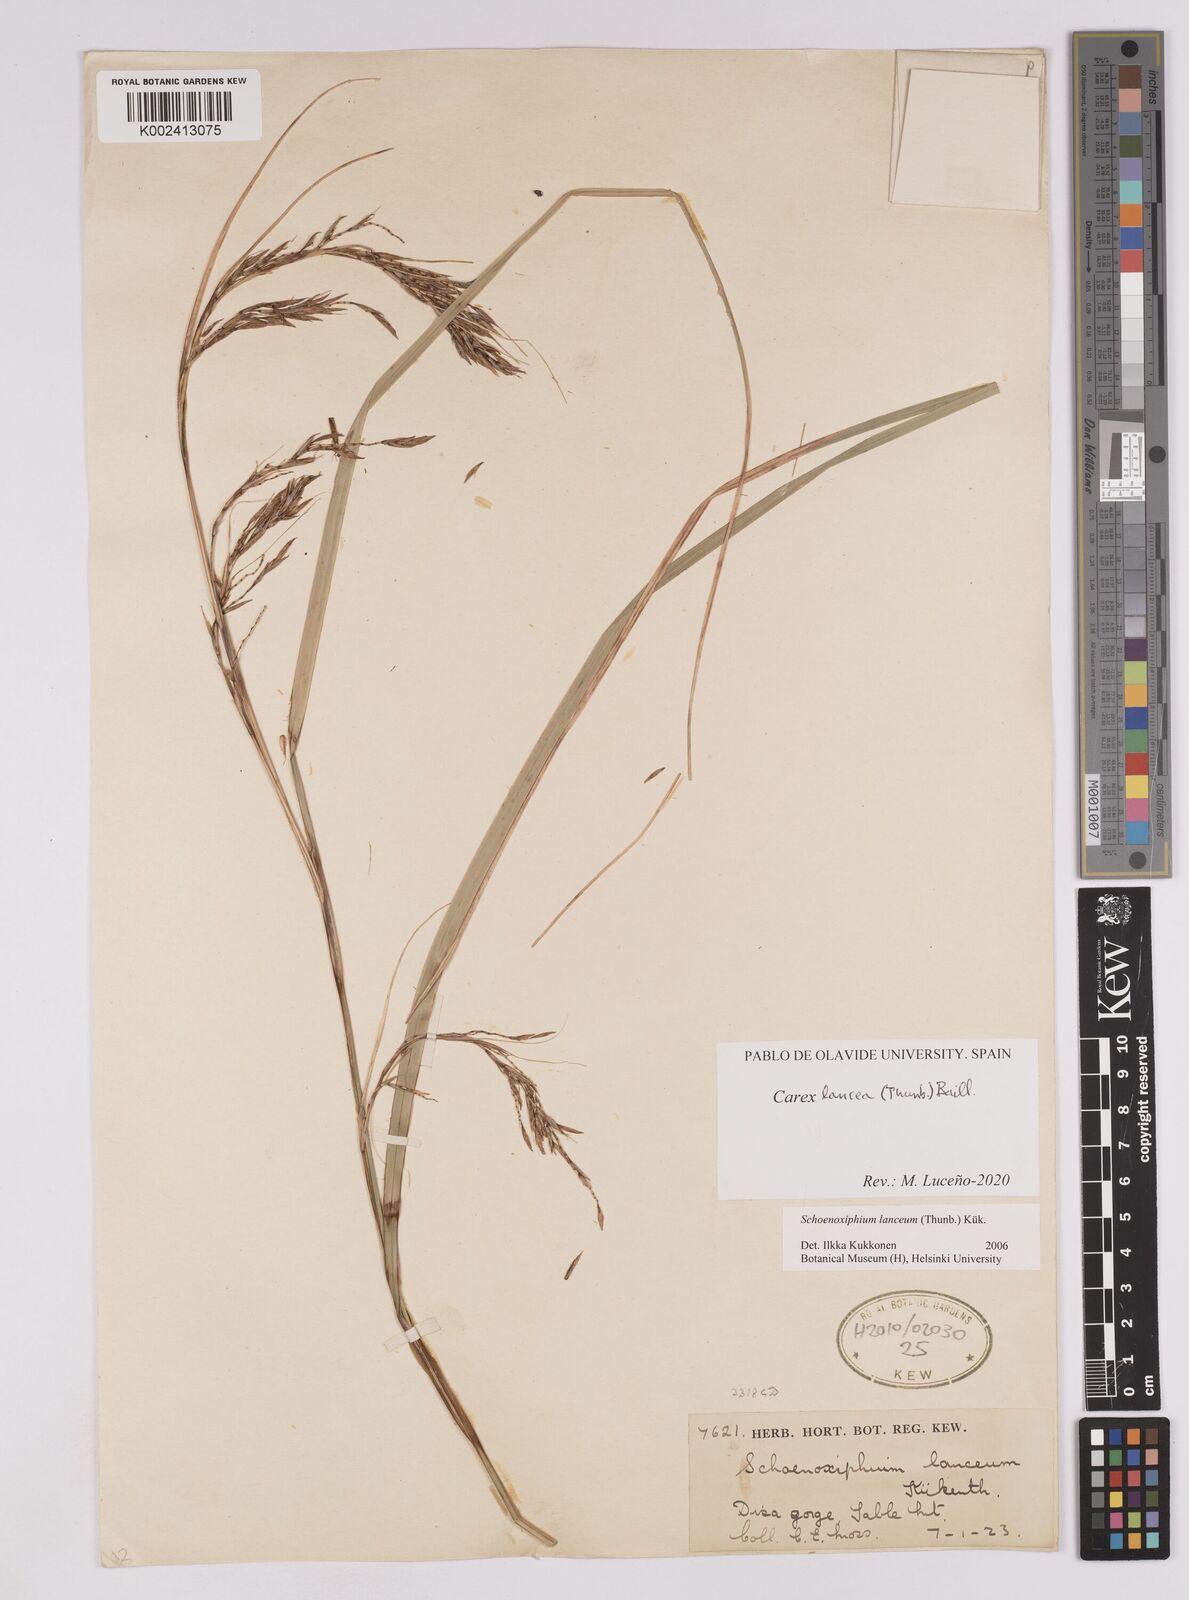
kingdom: Plantae
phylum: Tracheophyta
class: Liliopsida
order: Poales
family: Cyperaceae
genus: Carex
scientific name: Carex lancea
